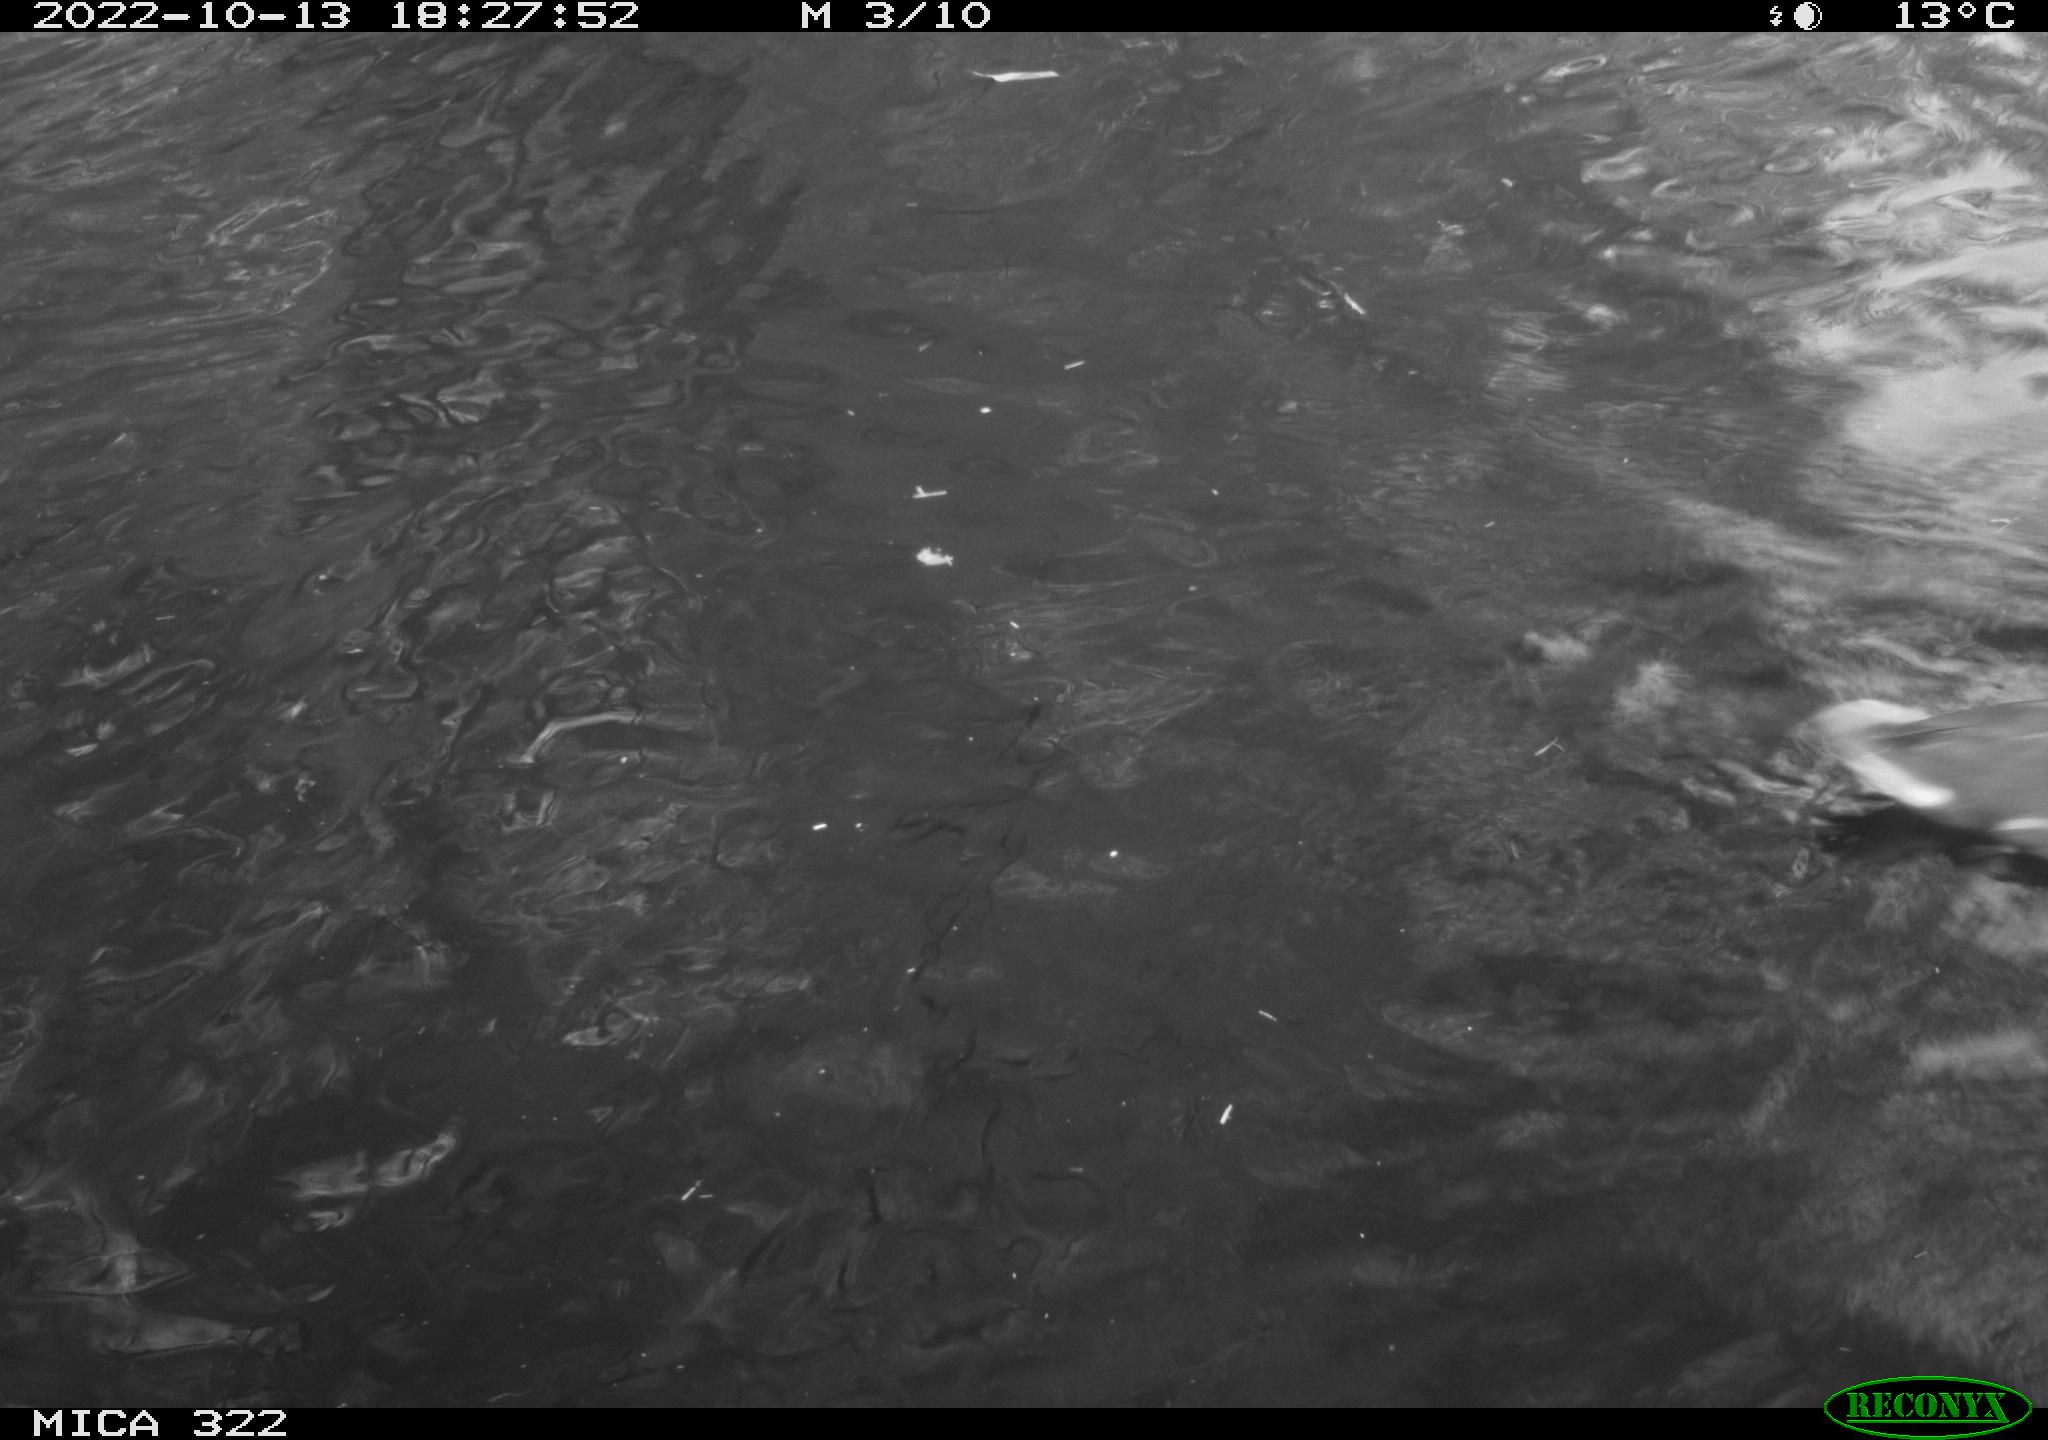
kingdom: Animalia
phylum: Chordata
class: Aves
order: Gruiformes
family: Rallidae
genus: Gallinula
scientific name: Gallinula chloropus
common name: Common moorhen
